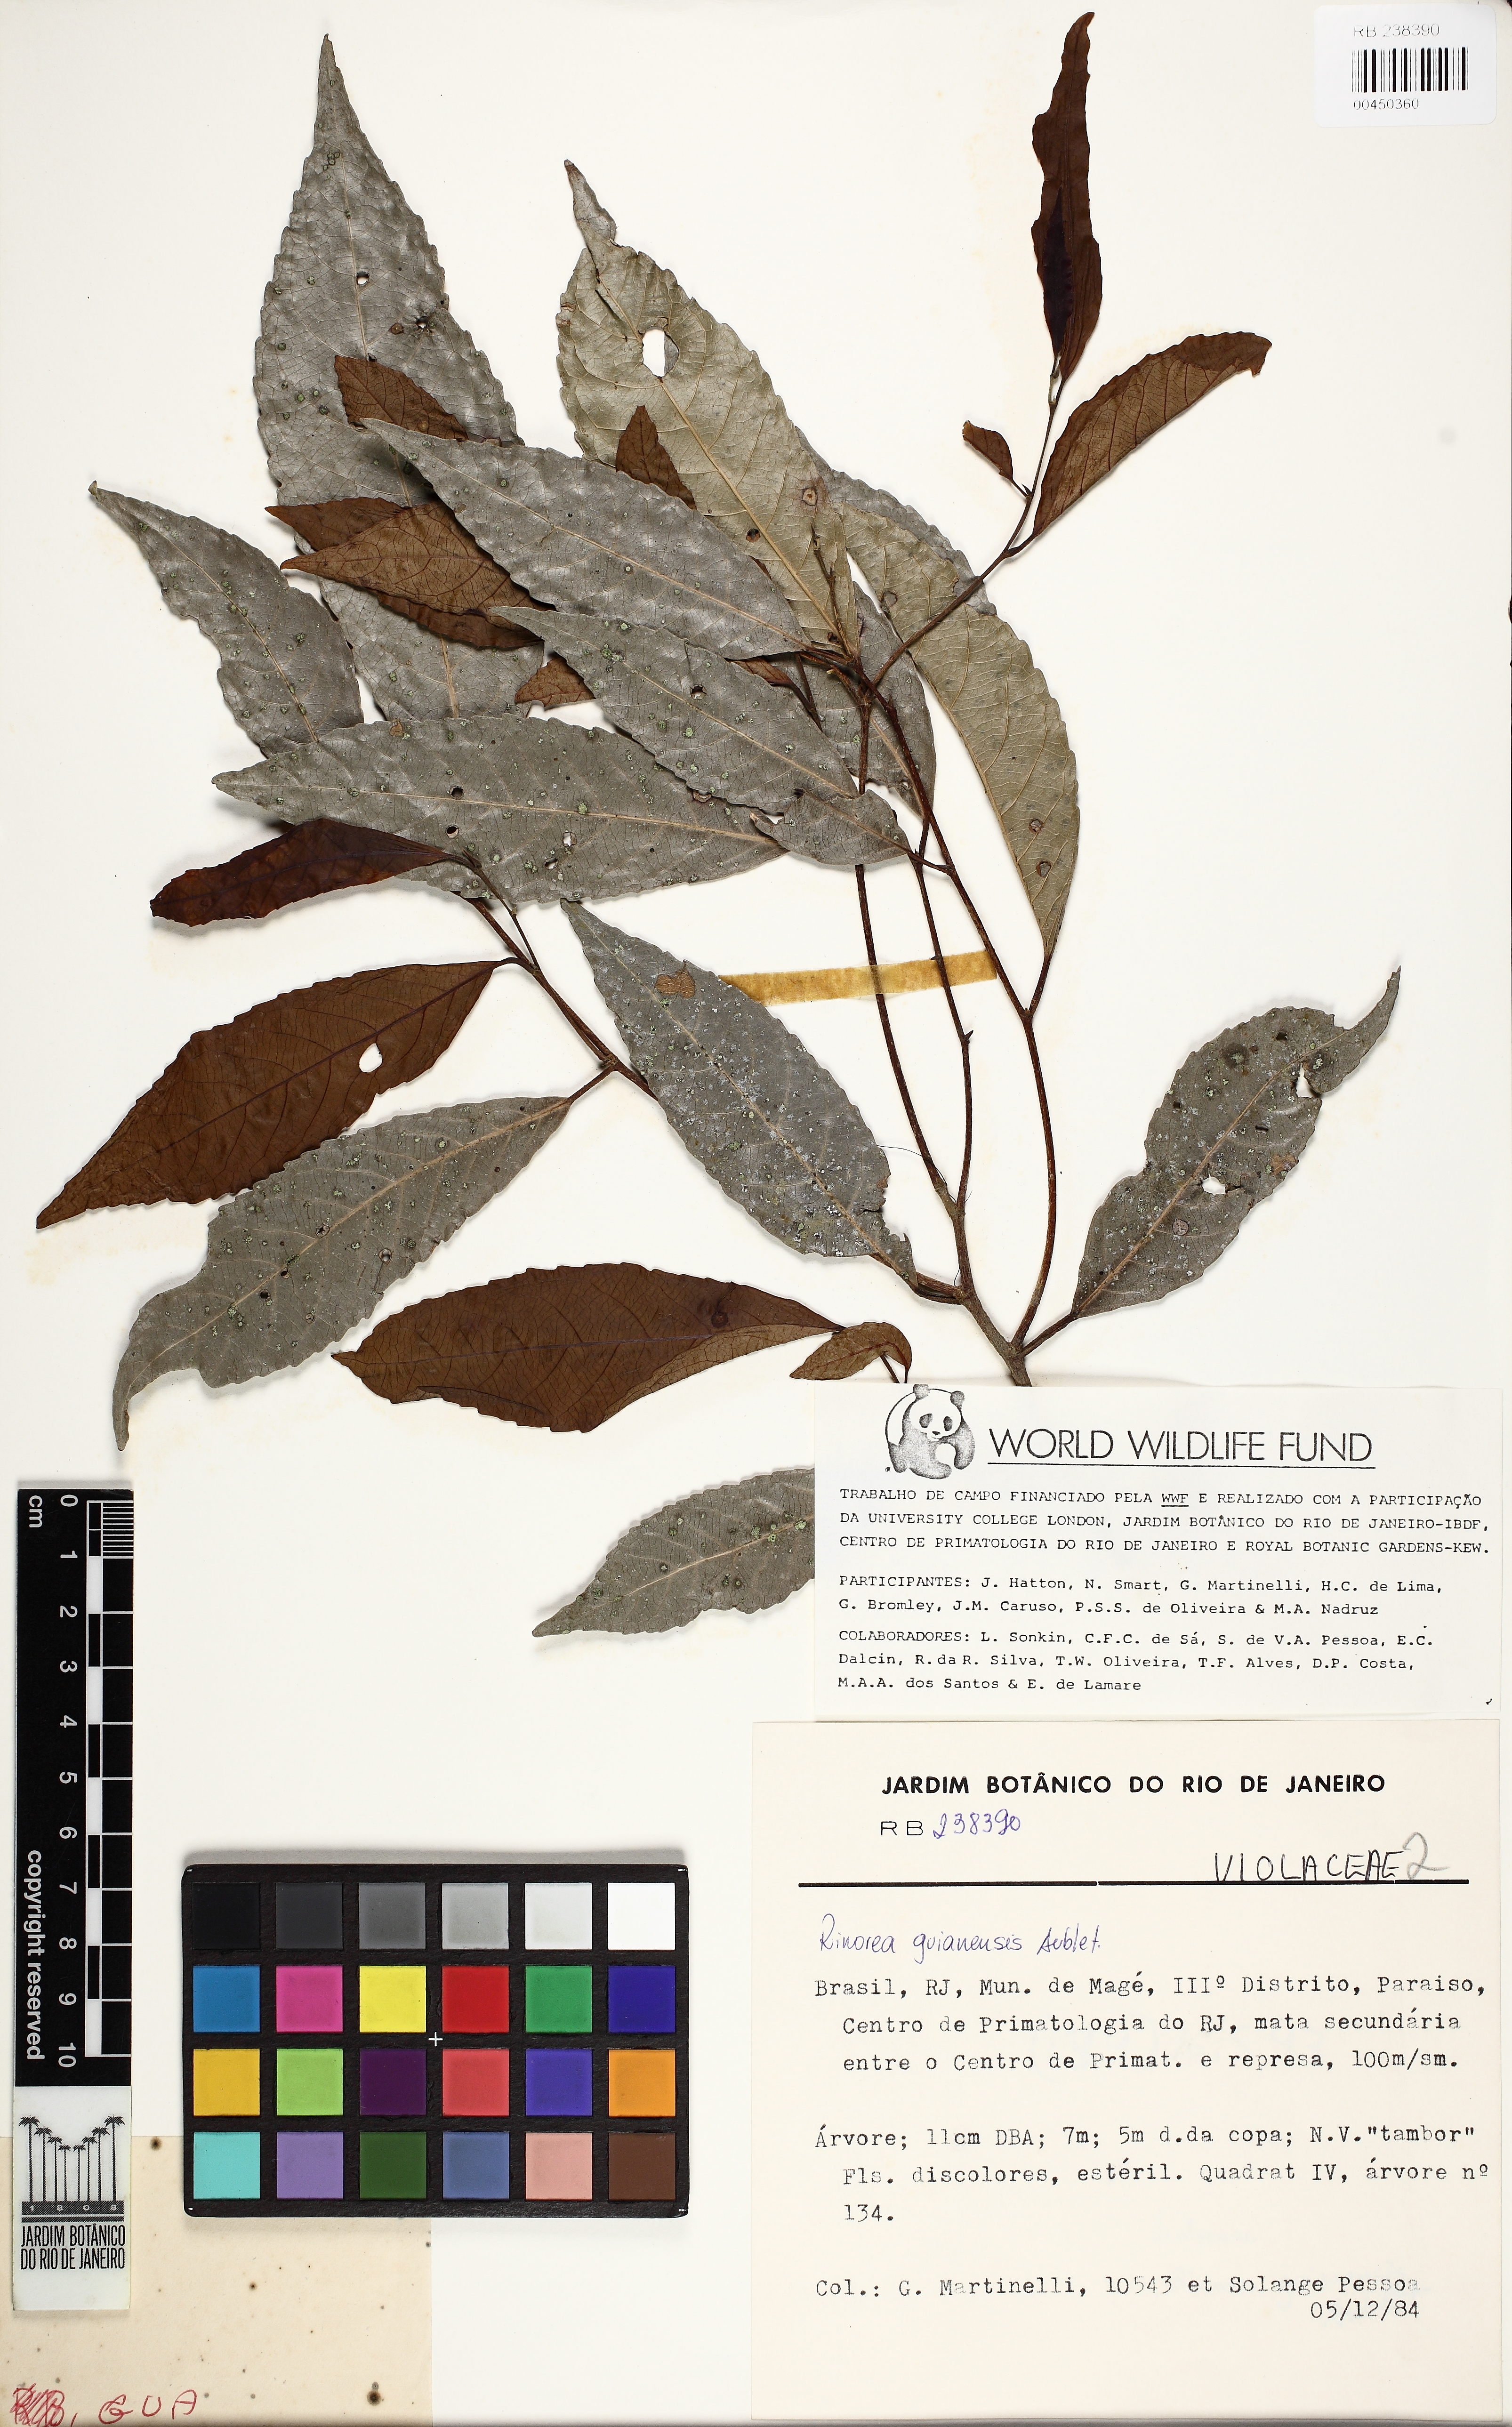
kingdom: Plantae
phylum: Tracheophyta
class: Magnoliopsida
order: Malpighiales
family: Violaceae
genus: Rinorea
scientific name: Rinorea guianensis
